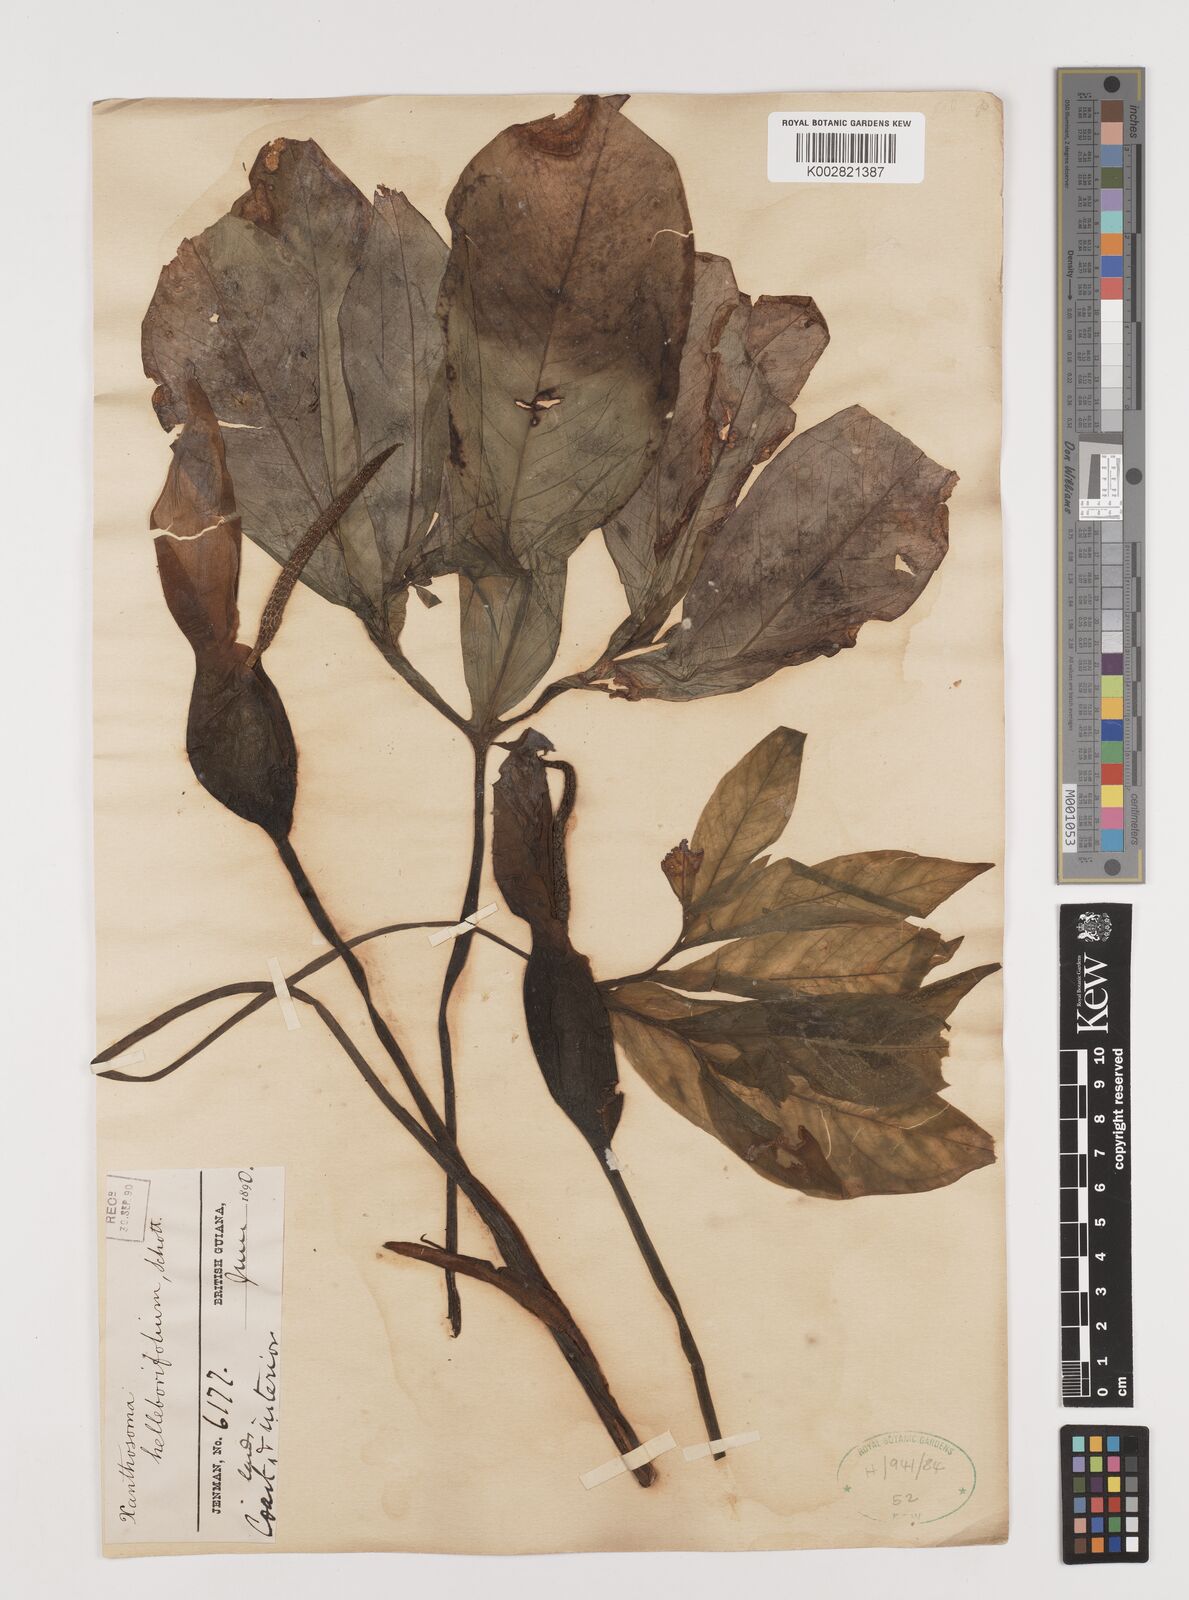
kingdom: Plantae
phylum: Tracheophyta
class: Liliopsida
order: Alismatales
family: Araceae
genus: Xanthosoma
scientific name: Xanthosoma helleborifolium
